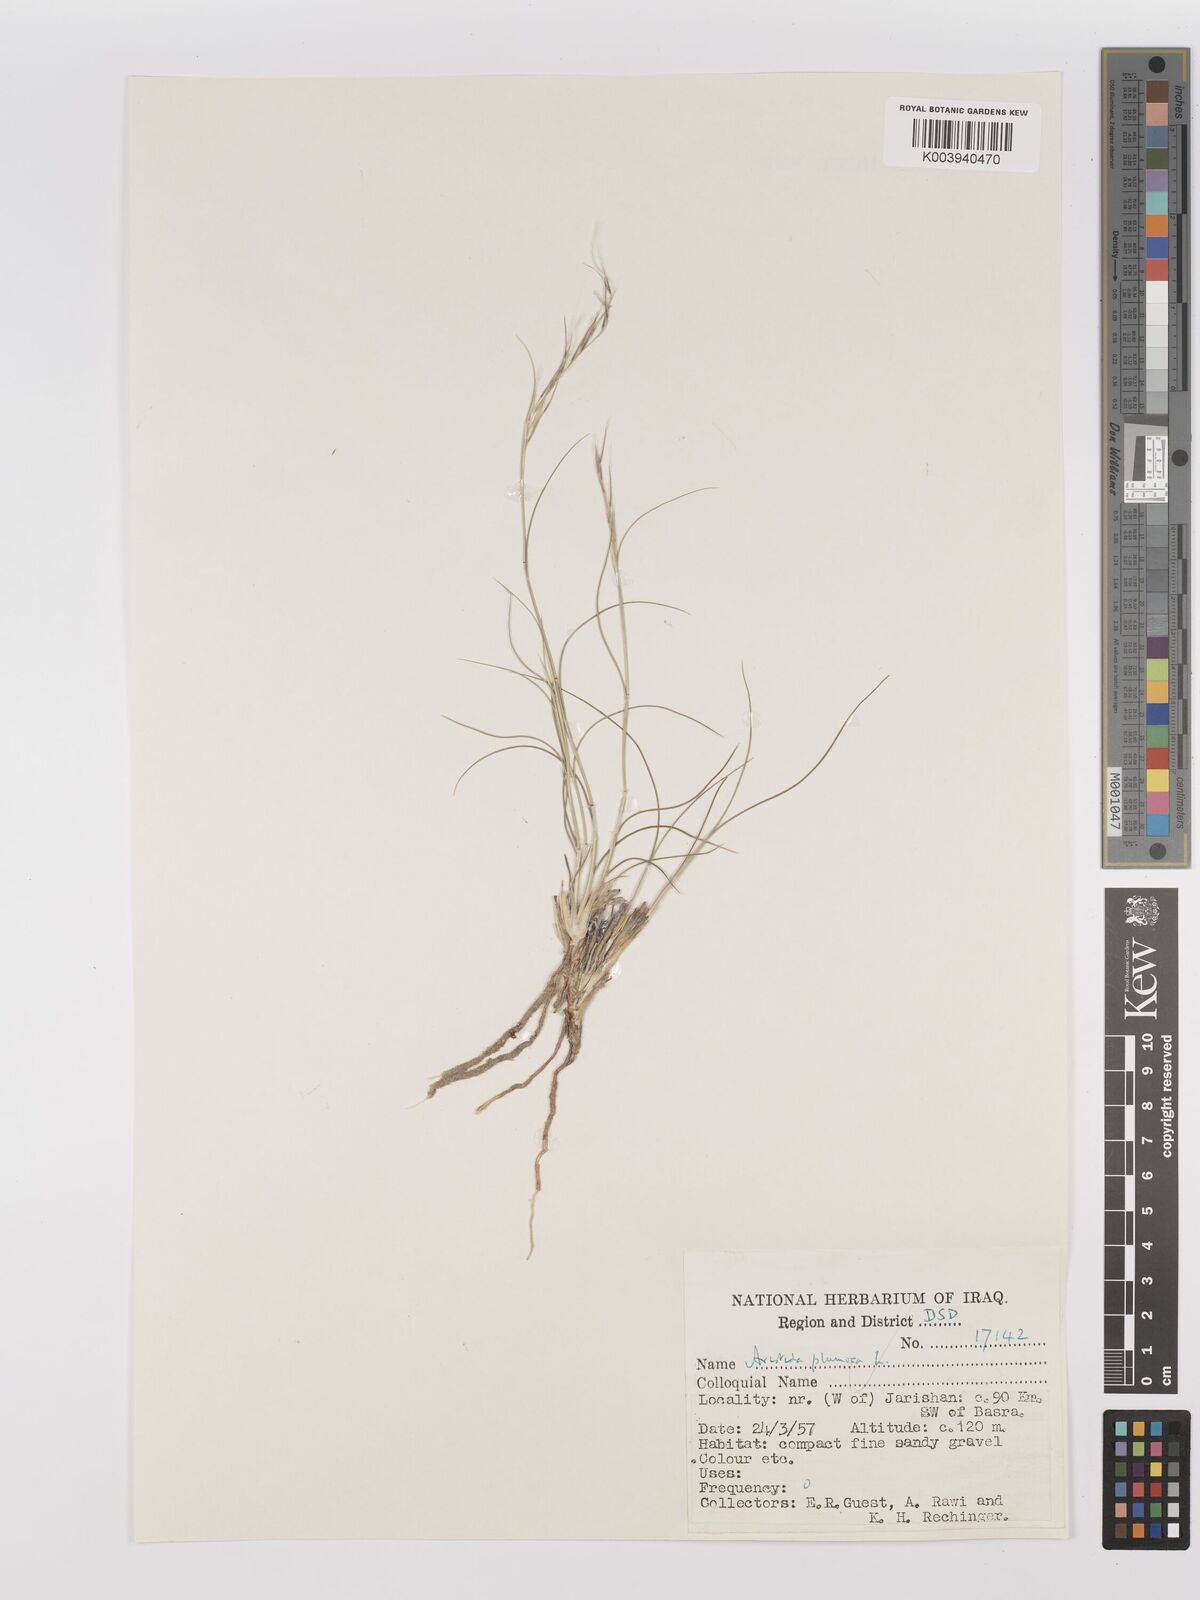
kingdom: Plantae
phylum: Tracheophyta
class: Liliopsida
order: Poales
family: Poaceae
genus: Stipagrostis
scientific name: Stipagrostis plumosa
